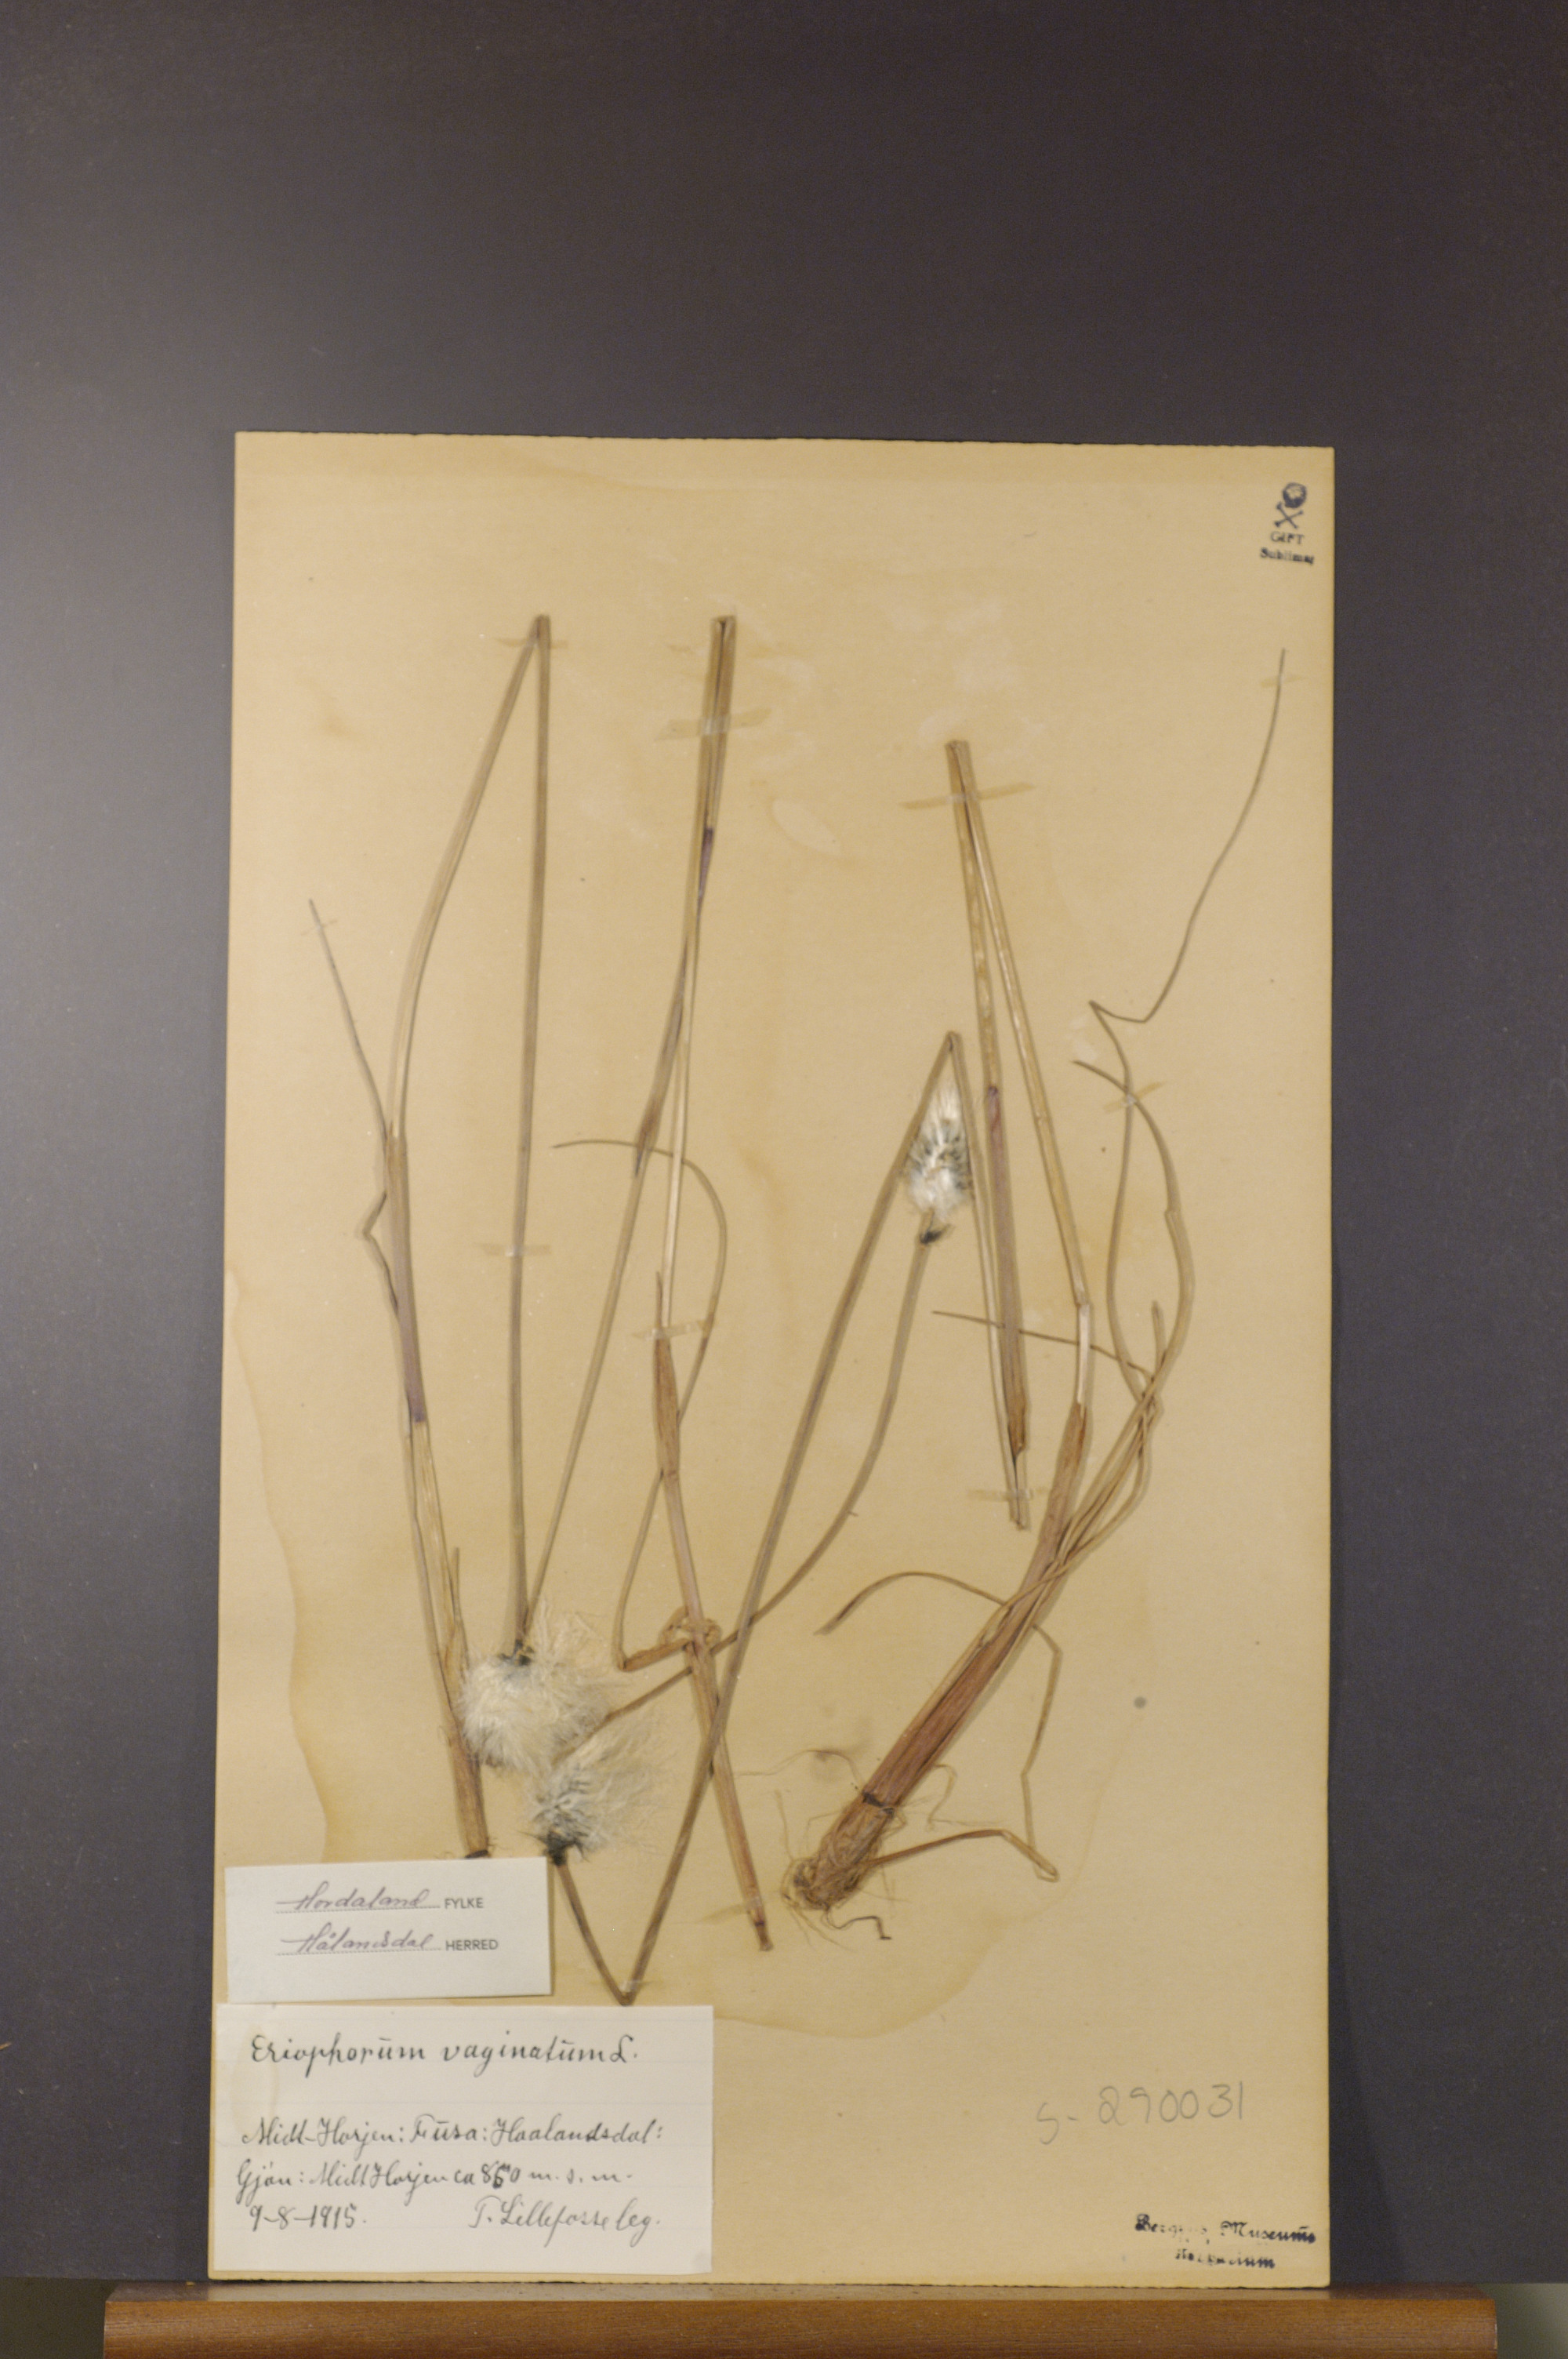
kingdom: Plantae
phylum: Tracheophyta
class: Liliopsida
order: Poales
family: Cyperaceae
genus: Eriophorum
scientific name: Eriophorum vaginatum
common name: Hare's-tail cottongrass
